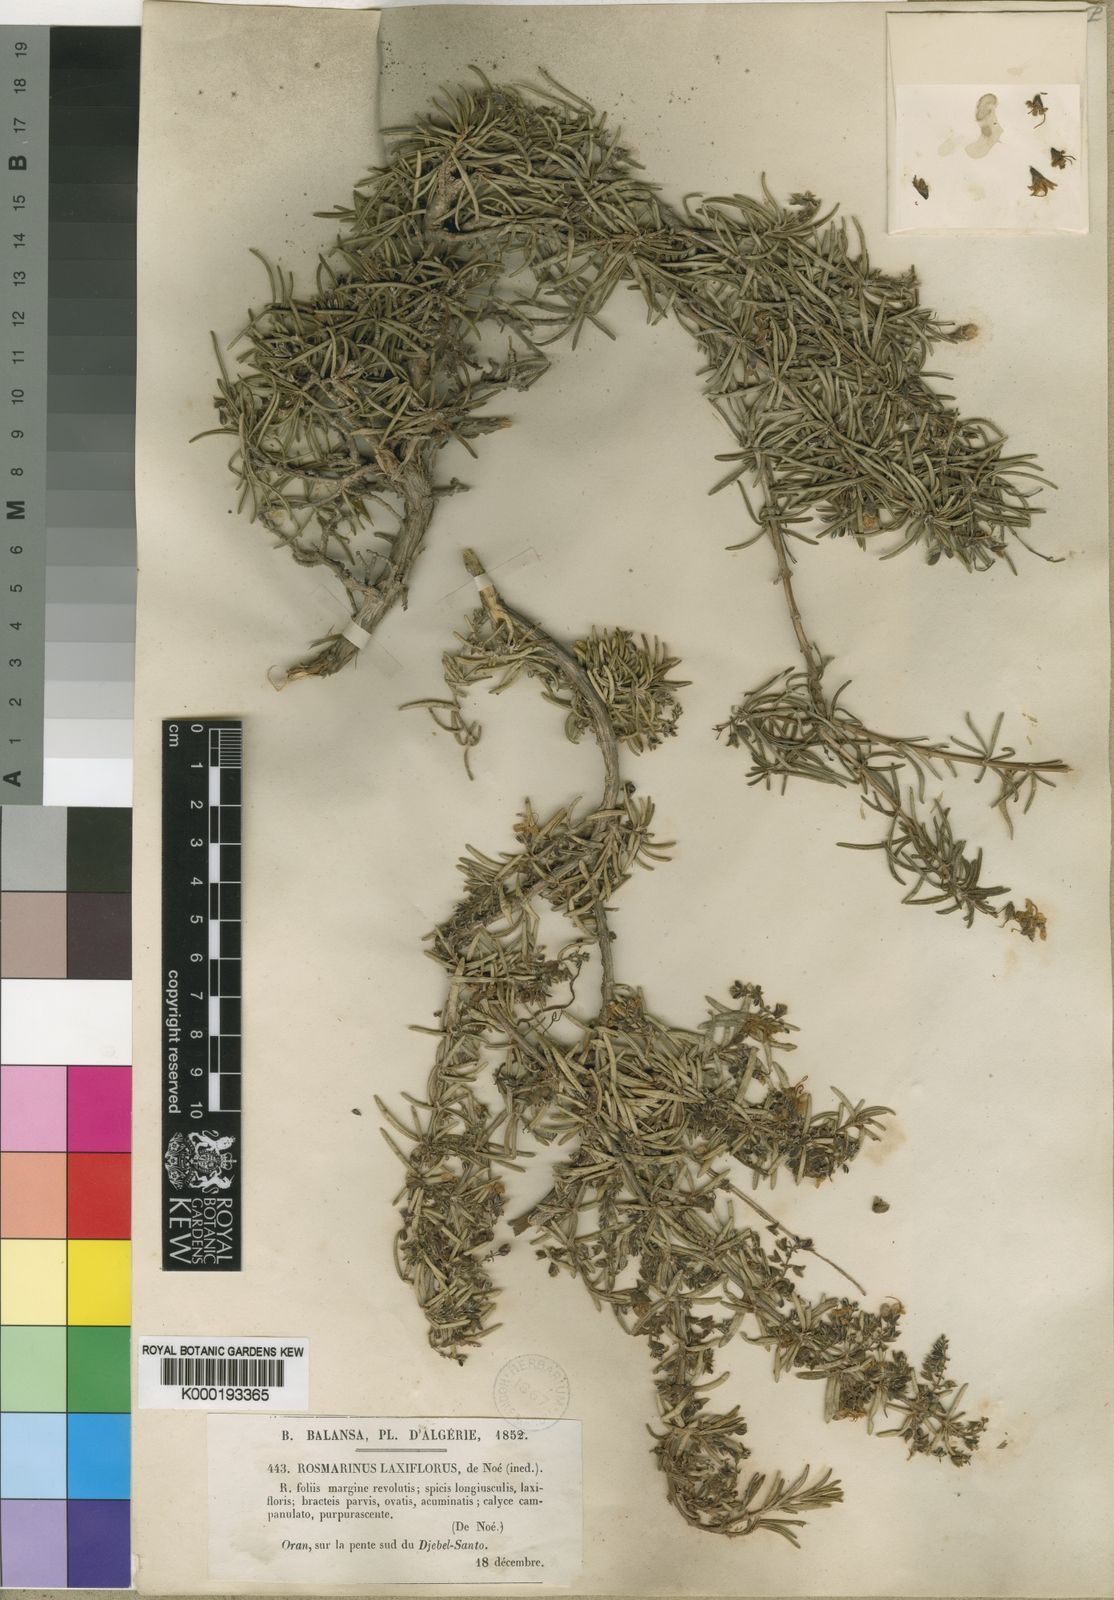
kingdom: Plantae
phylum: Tracheophyta
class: Magnoliopsida
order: Lamiales
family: Lamiaceae
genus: Salvia
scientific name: Salvia
